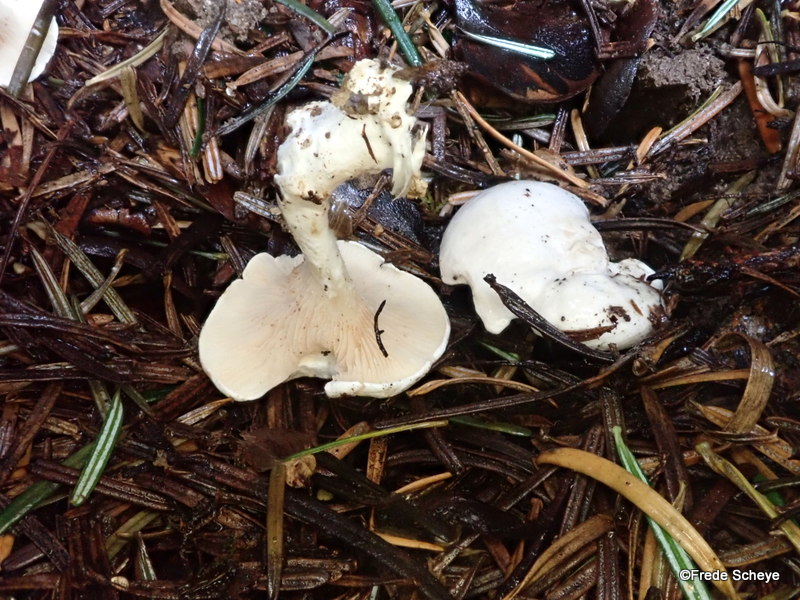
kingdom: Fungi
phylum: Basidiomycota
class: Agaricomycetes
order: Agaricales
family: Entolomataceae
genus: Clitopilus
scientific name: Clitopilus prunulus
